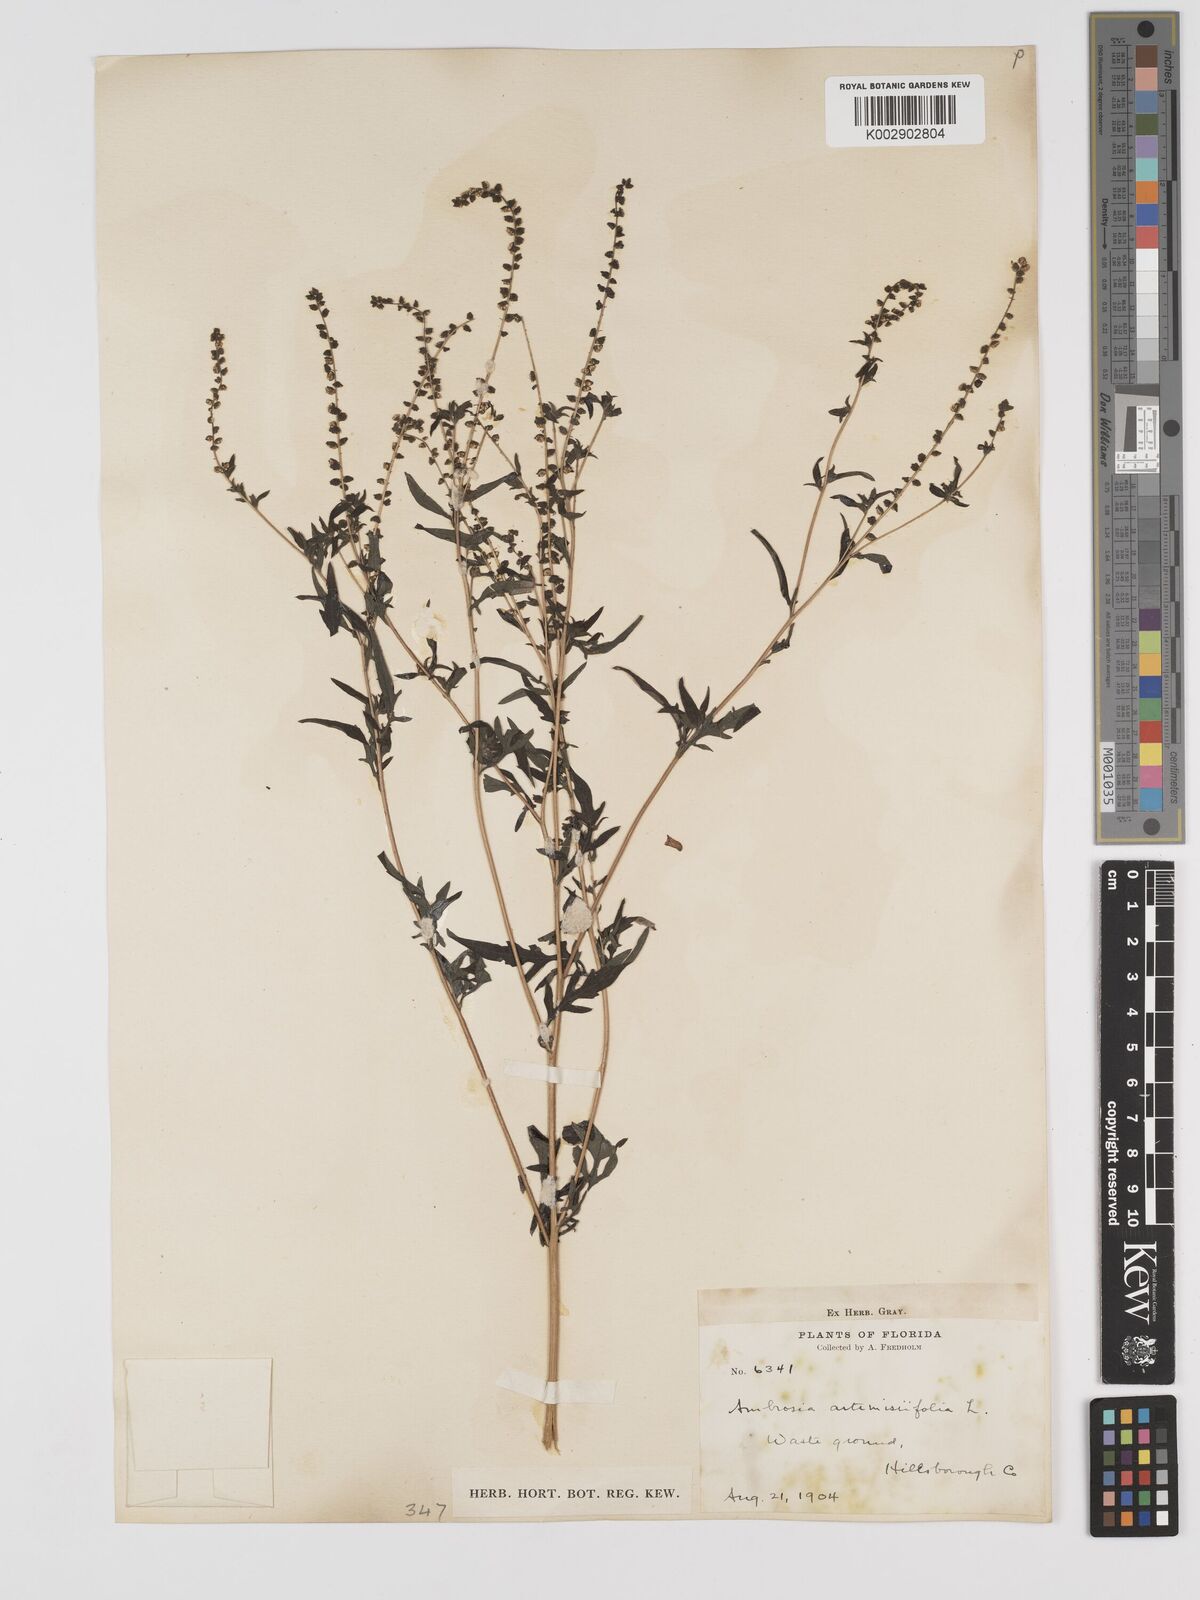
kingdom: Plantae
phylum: Tracheophyta
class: Magnoliopsida
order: Asterales
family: Asteraceae
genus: Ambrosia
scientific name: Ambrosia artemisiifolia
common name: Annual ragweed
